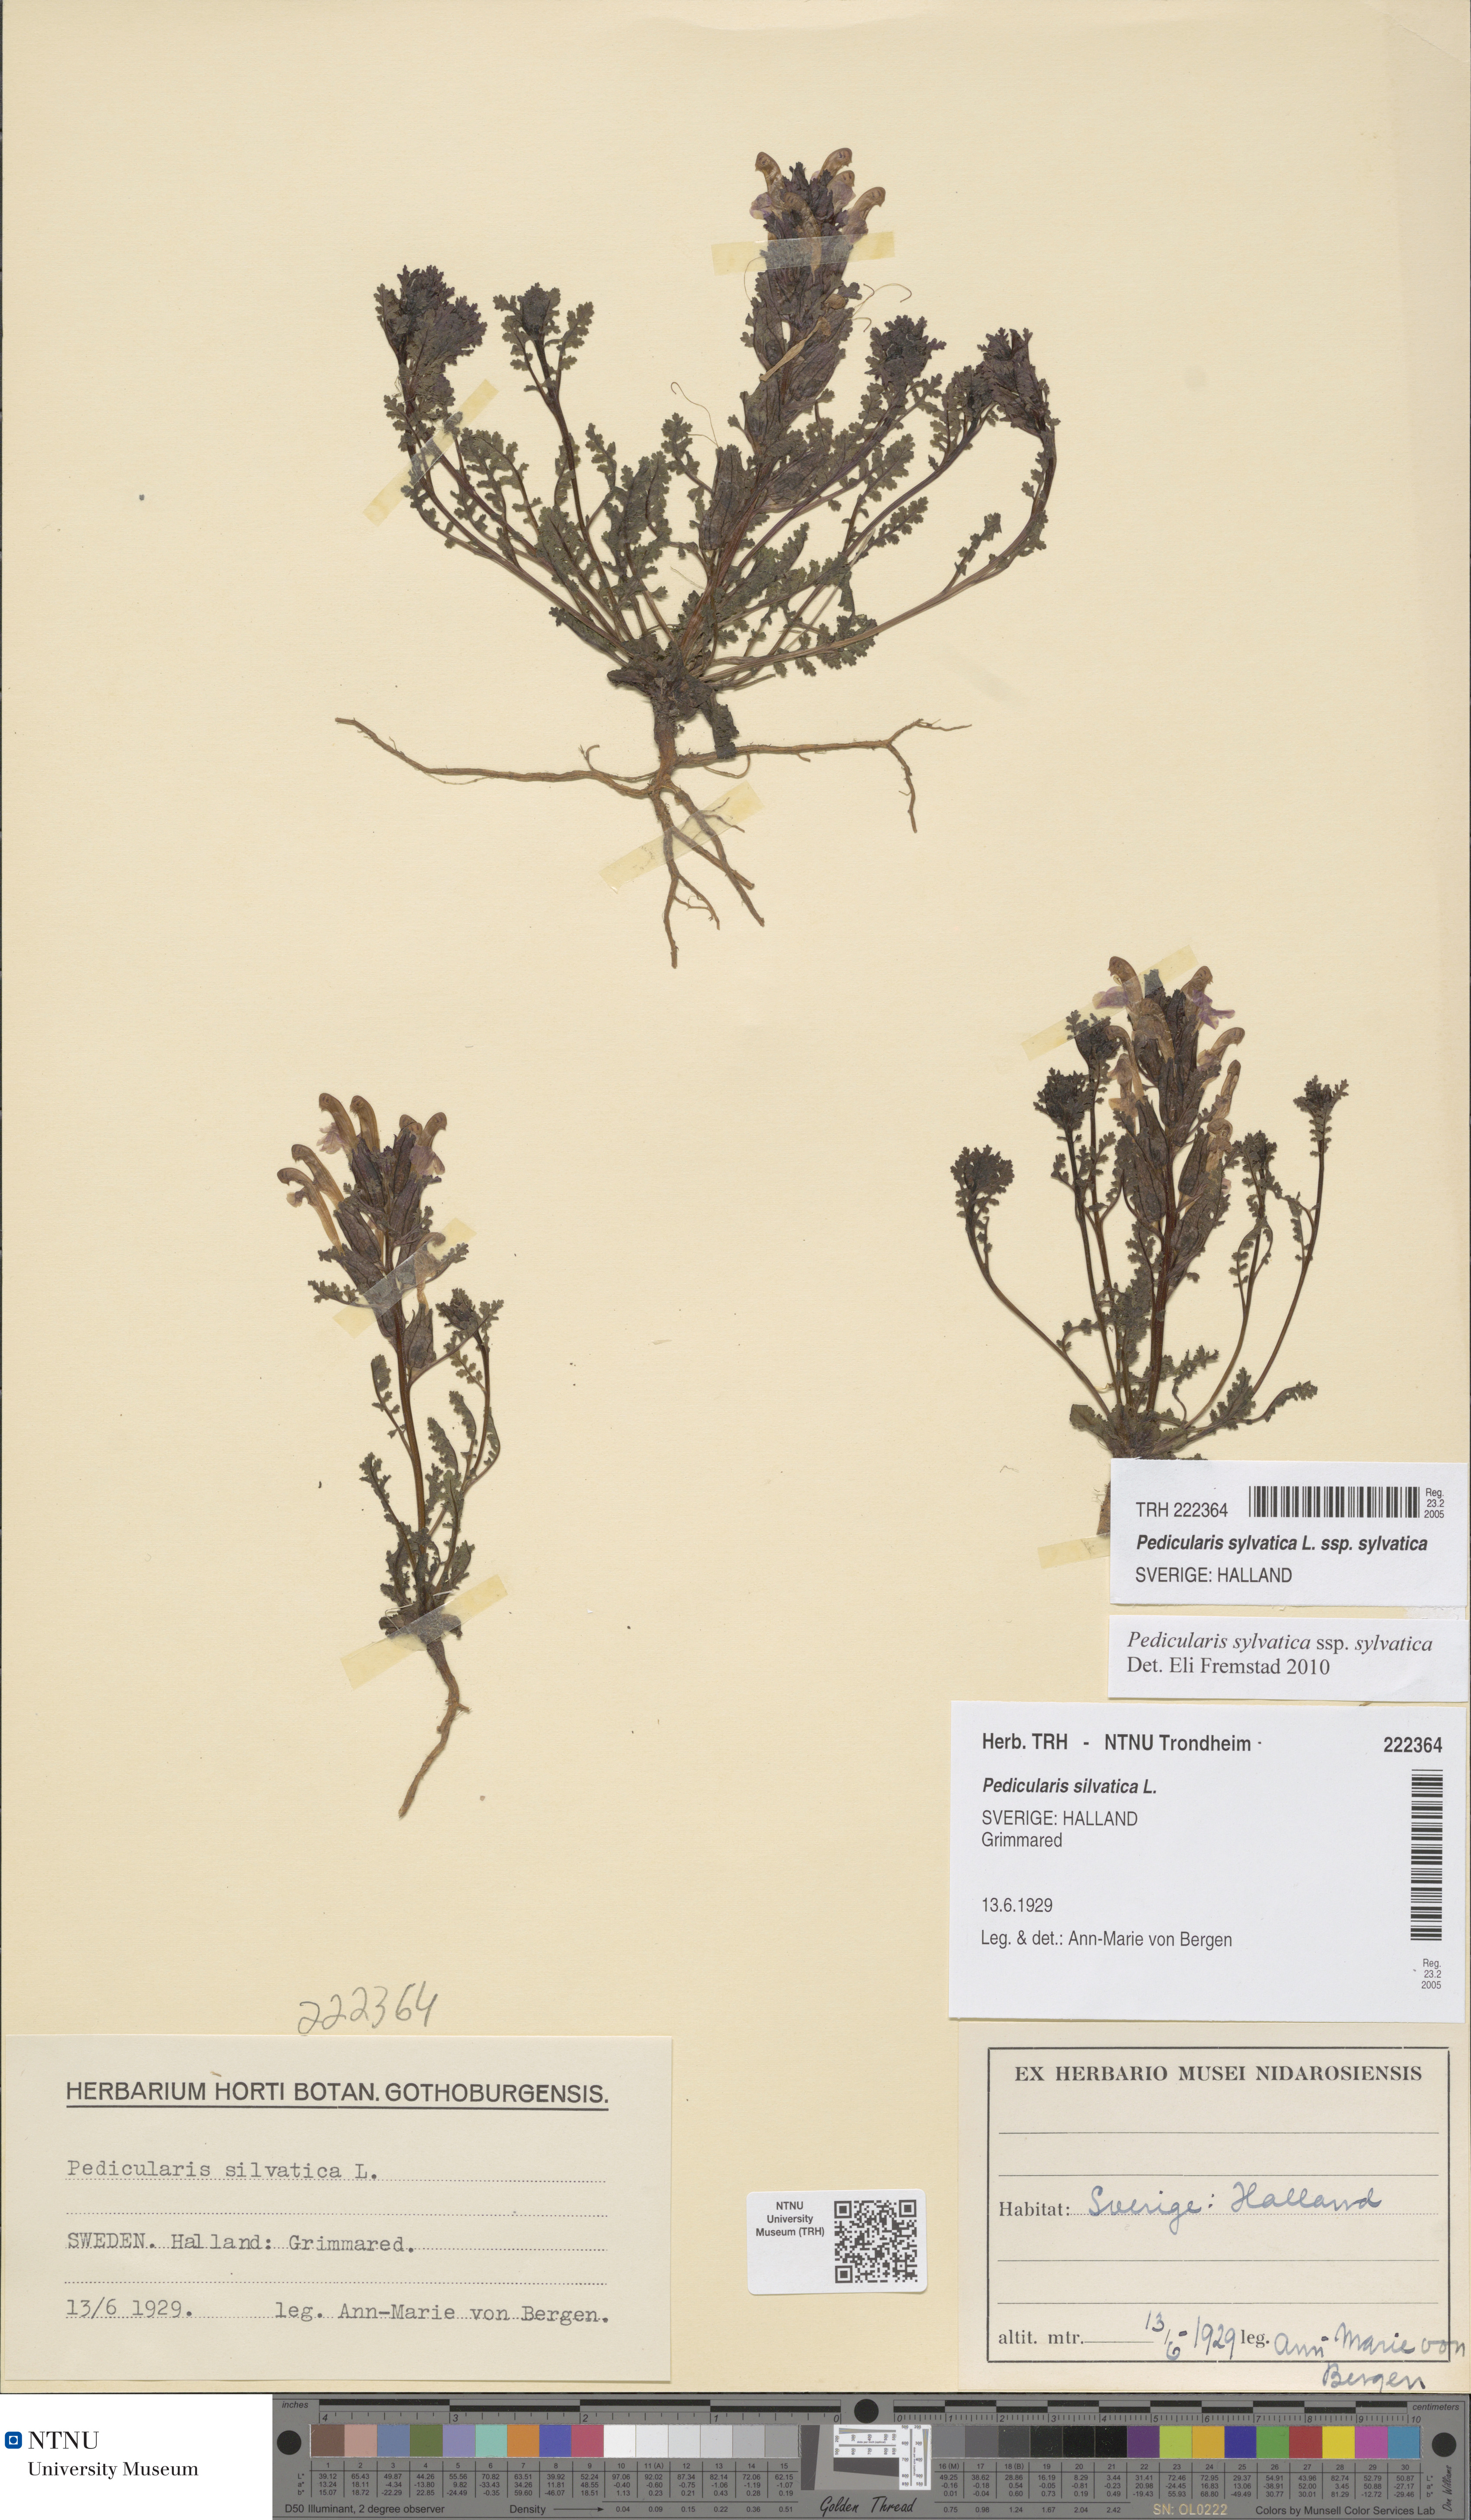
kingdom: Plantae
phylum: Tracheophyta
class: Magnoliopsida
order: Lamiales
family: Orobanchaceae
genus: Pedicularis
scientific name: Pedicularis sylvatica
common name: Lousewort
